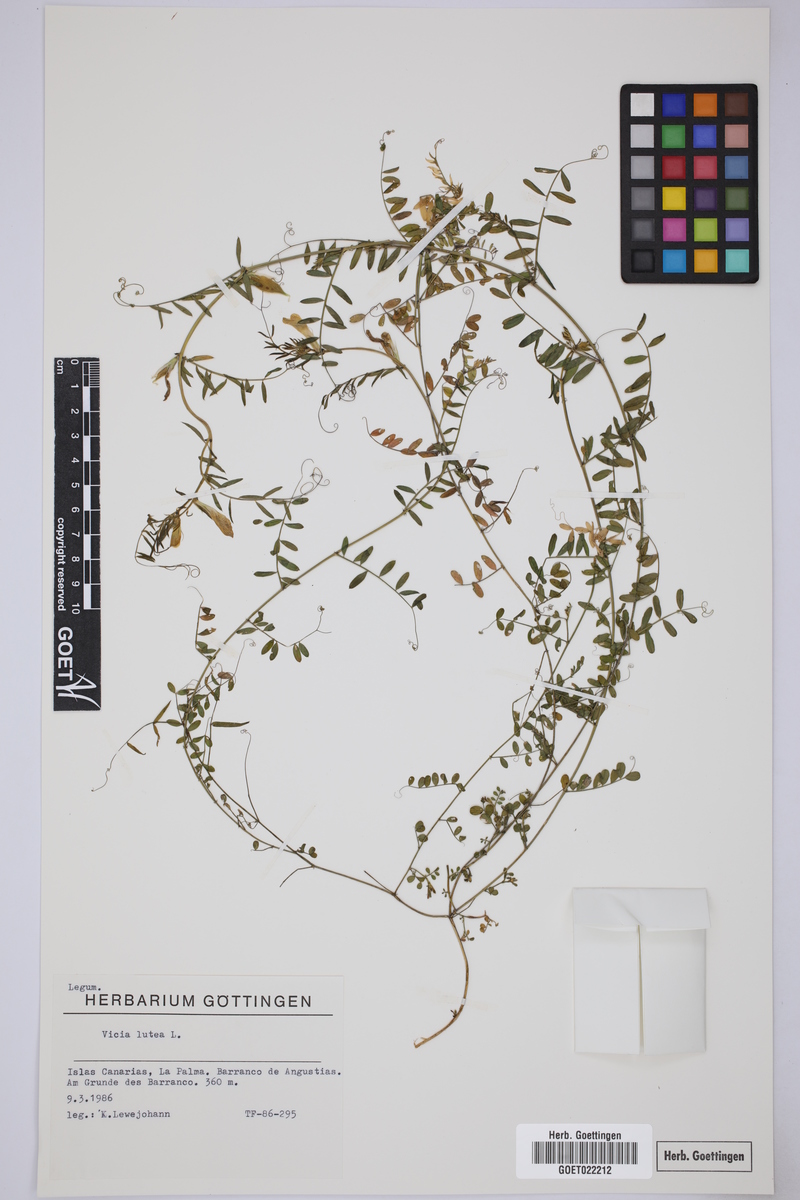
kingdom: Plantae
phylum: Tracheophyta
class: Magnoliopsida
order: Fabales
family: Fabaceae
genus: Vicia
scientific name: Vicia lutea
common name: Smooth yellow vetch
